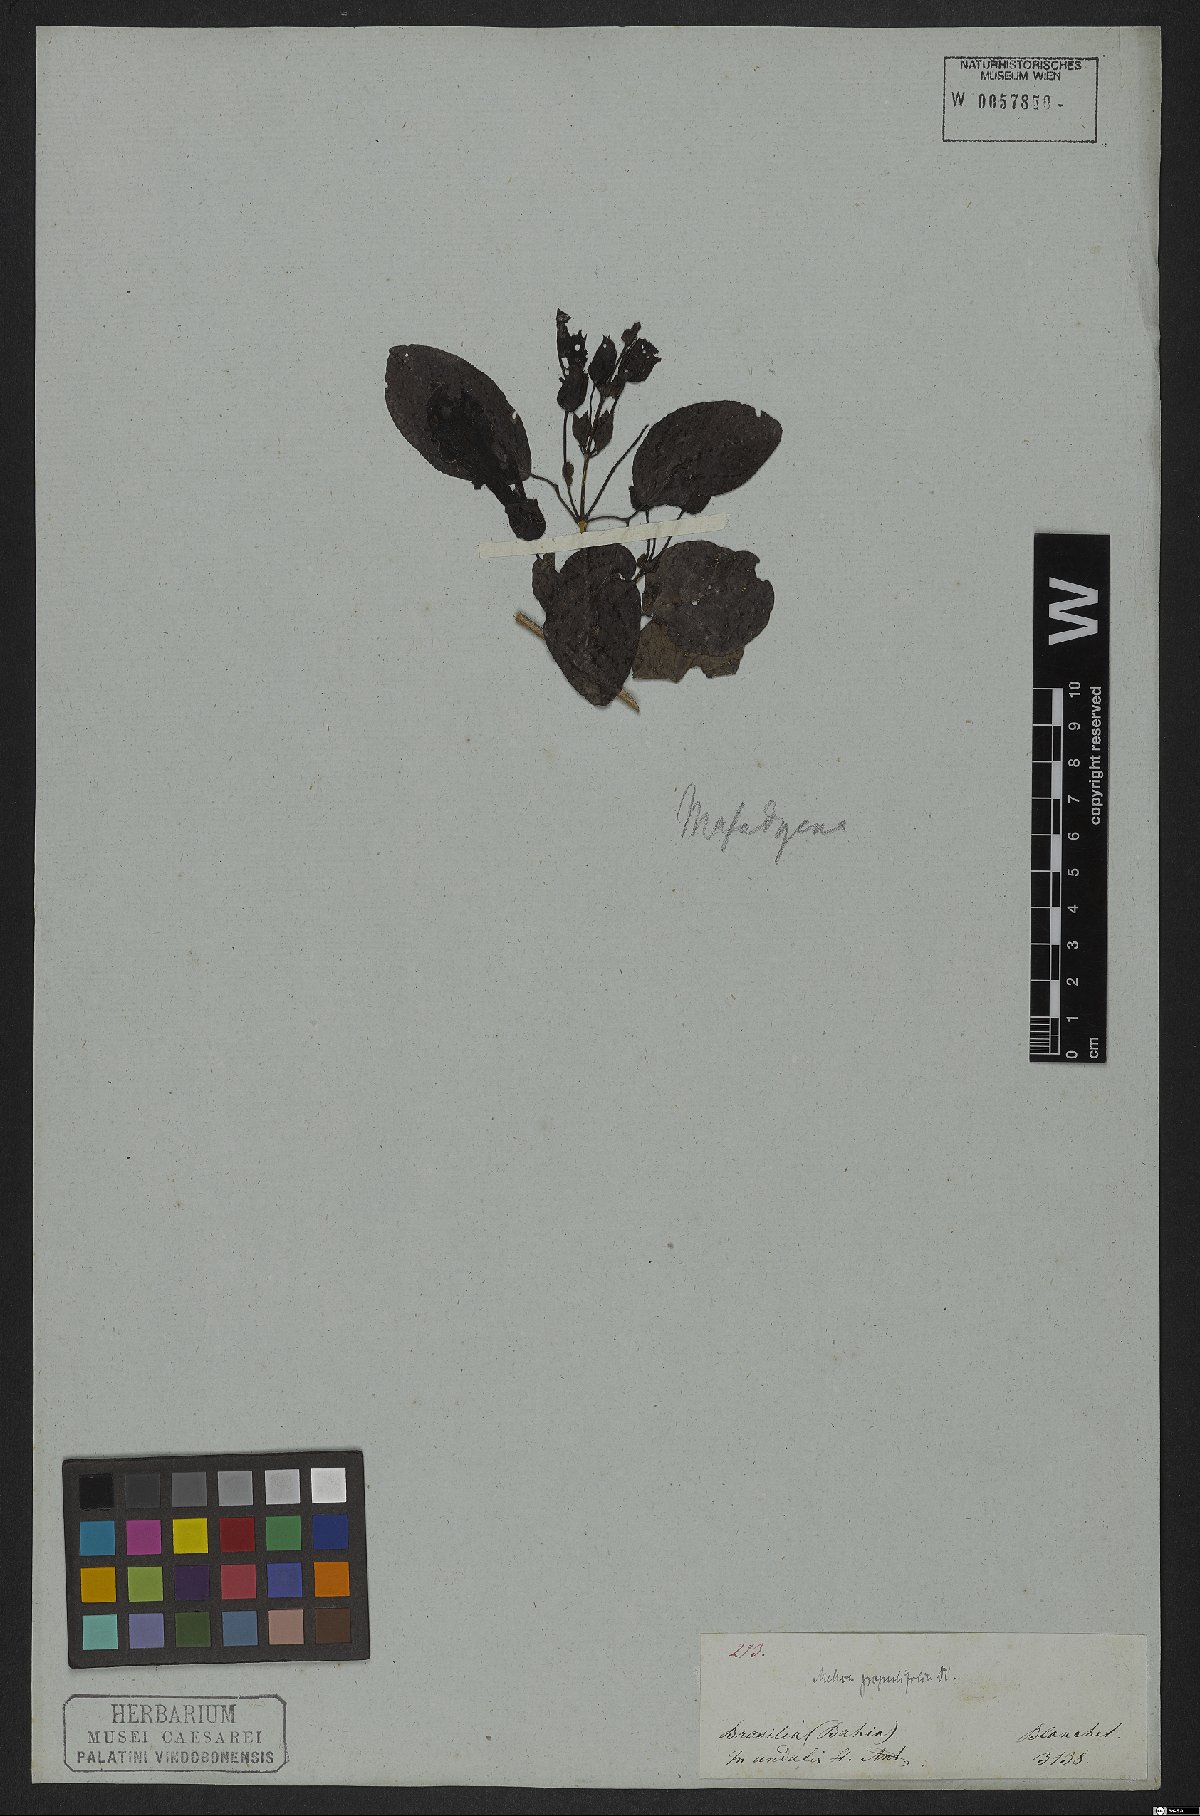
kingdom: Plantae
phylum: Tracheophyta
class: Magnoliopsida
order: Lamiales
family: Bignoniaceae
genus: Dolichandra
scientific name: Dolichandra quadrivalvis
